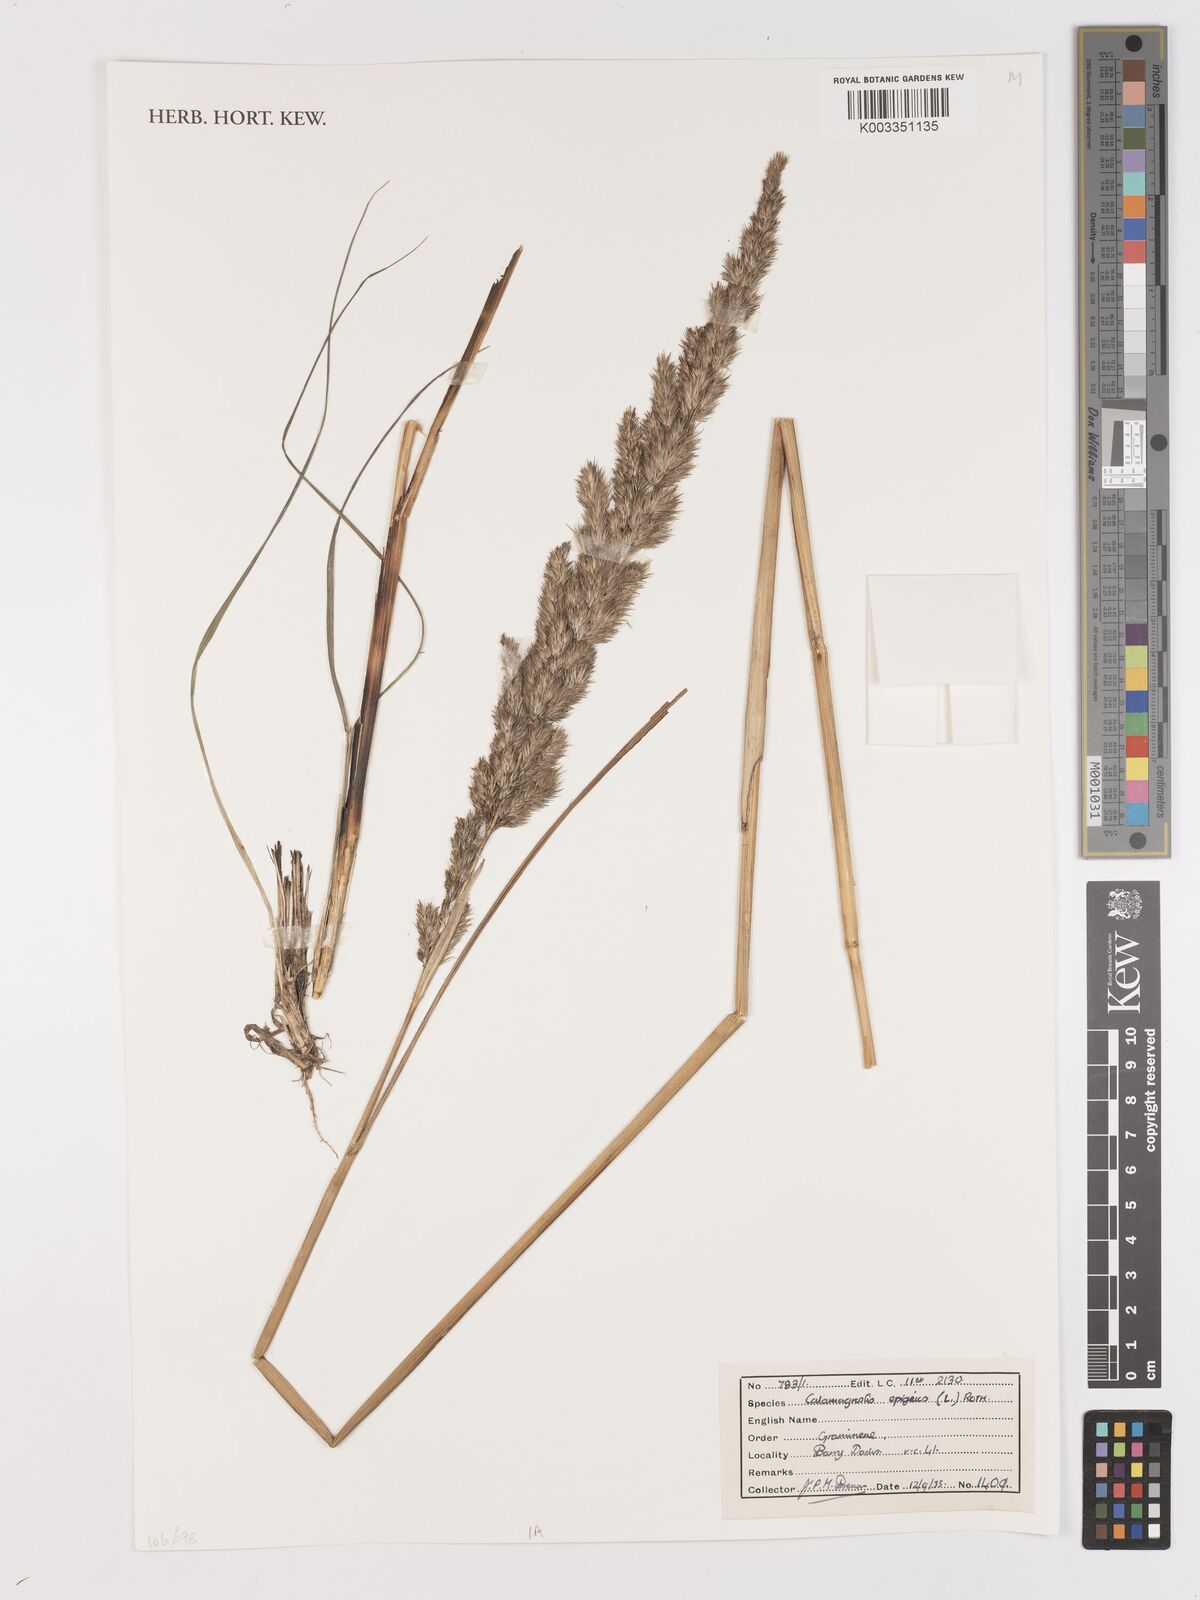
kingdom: Plantae
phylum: Tracheophyta
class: Liliopsida
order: Poales
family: Poaceae
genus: Calamagrostis
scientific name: Calamagrostis
